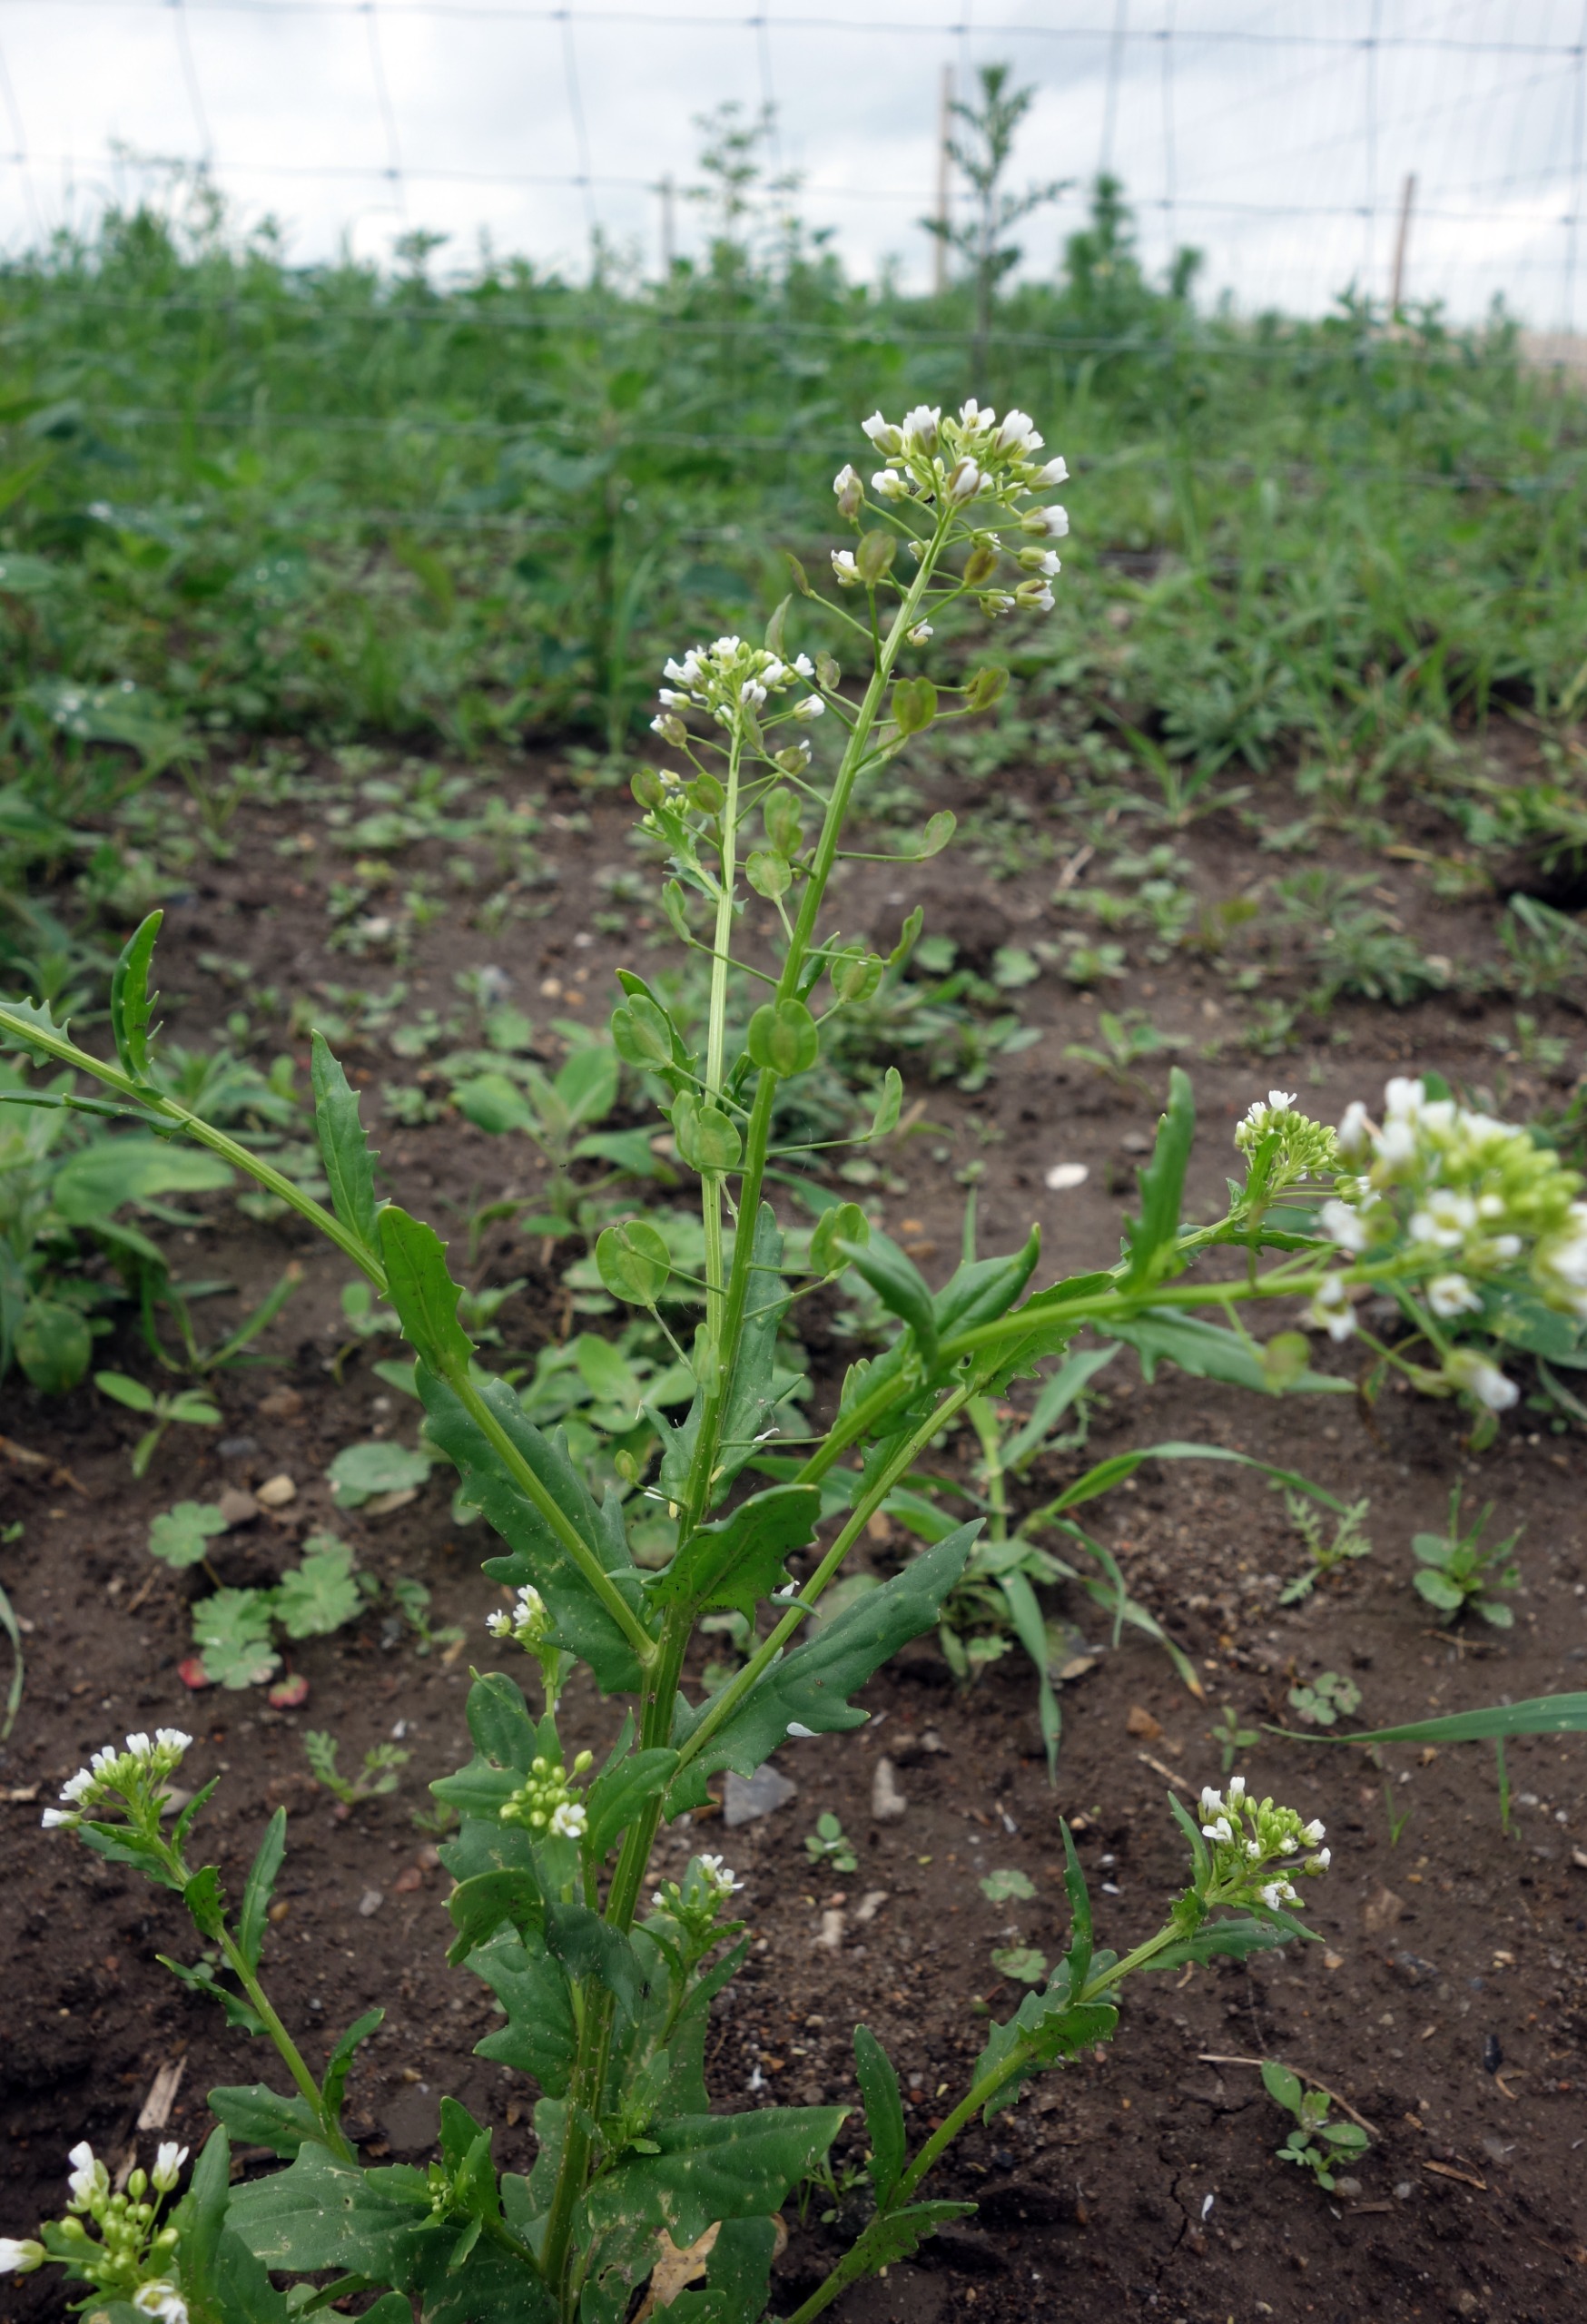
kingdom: Plantae
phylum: Tracheophyta
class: Magnoliopsida
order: Brassicales
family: Brassicaceae
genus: Thlaspi
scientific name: Thlaspi arvense
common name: Almindelig pengeurt
